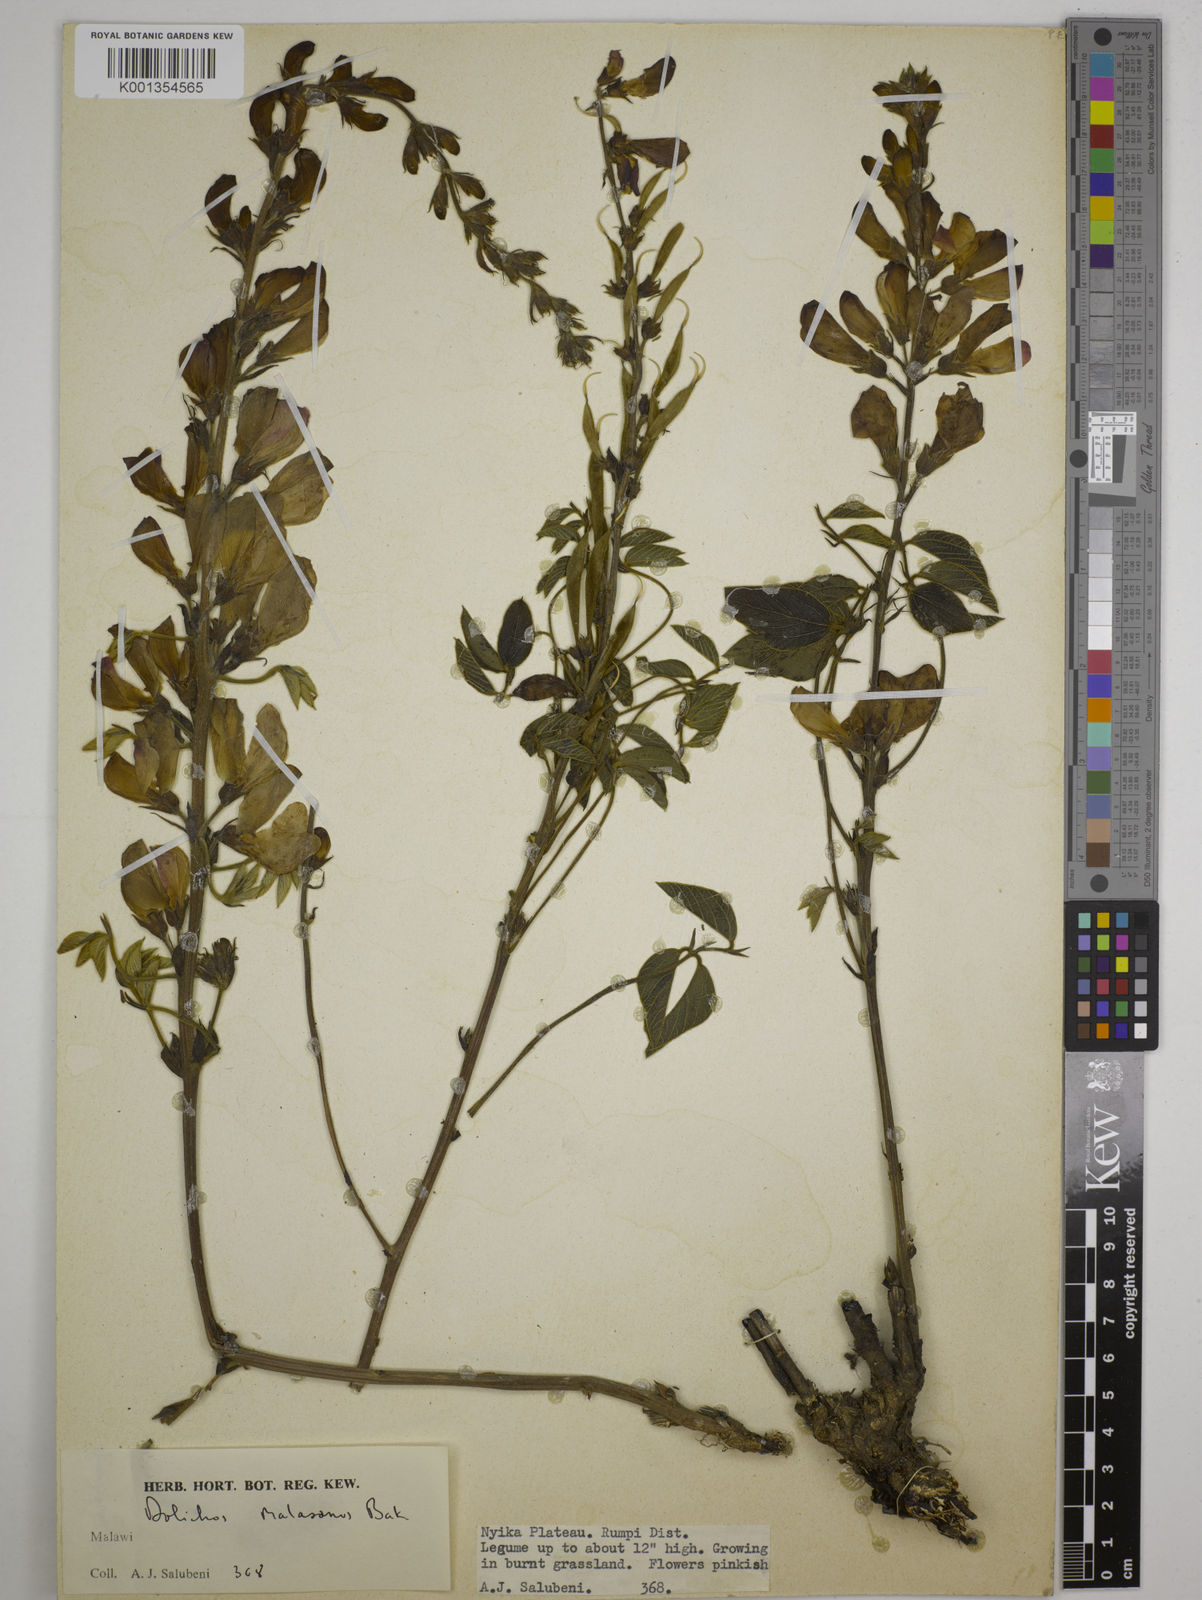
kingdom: Plantae
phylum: Tracheophyta
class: Magnoliopsida
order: Fabales
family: Fabaceae
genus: Dolichos
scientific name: Dolichos kilimandscharicus
